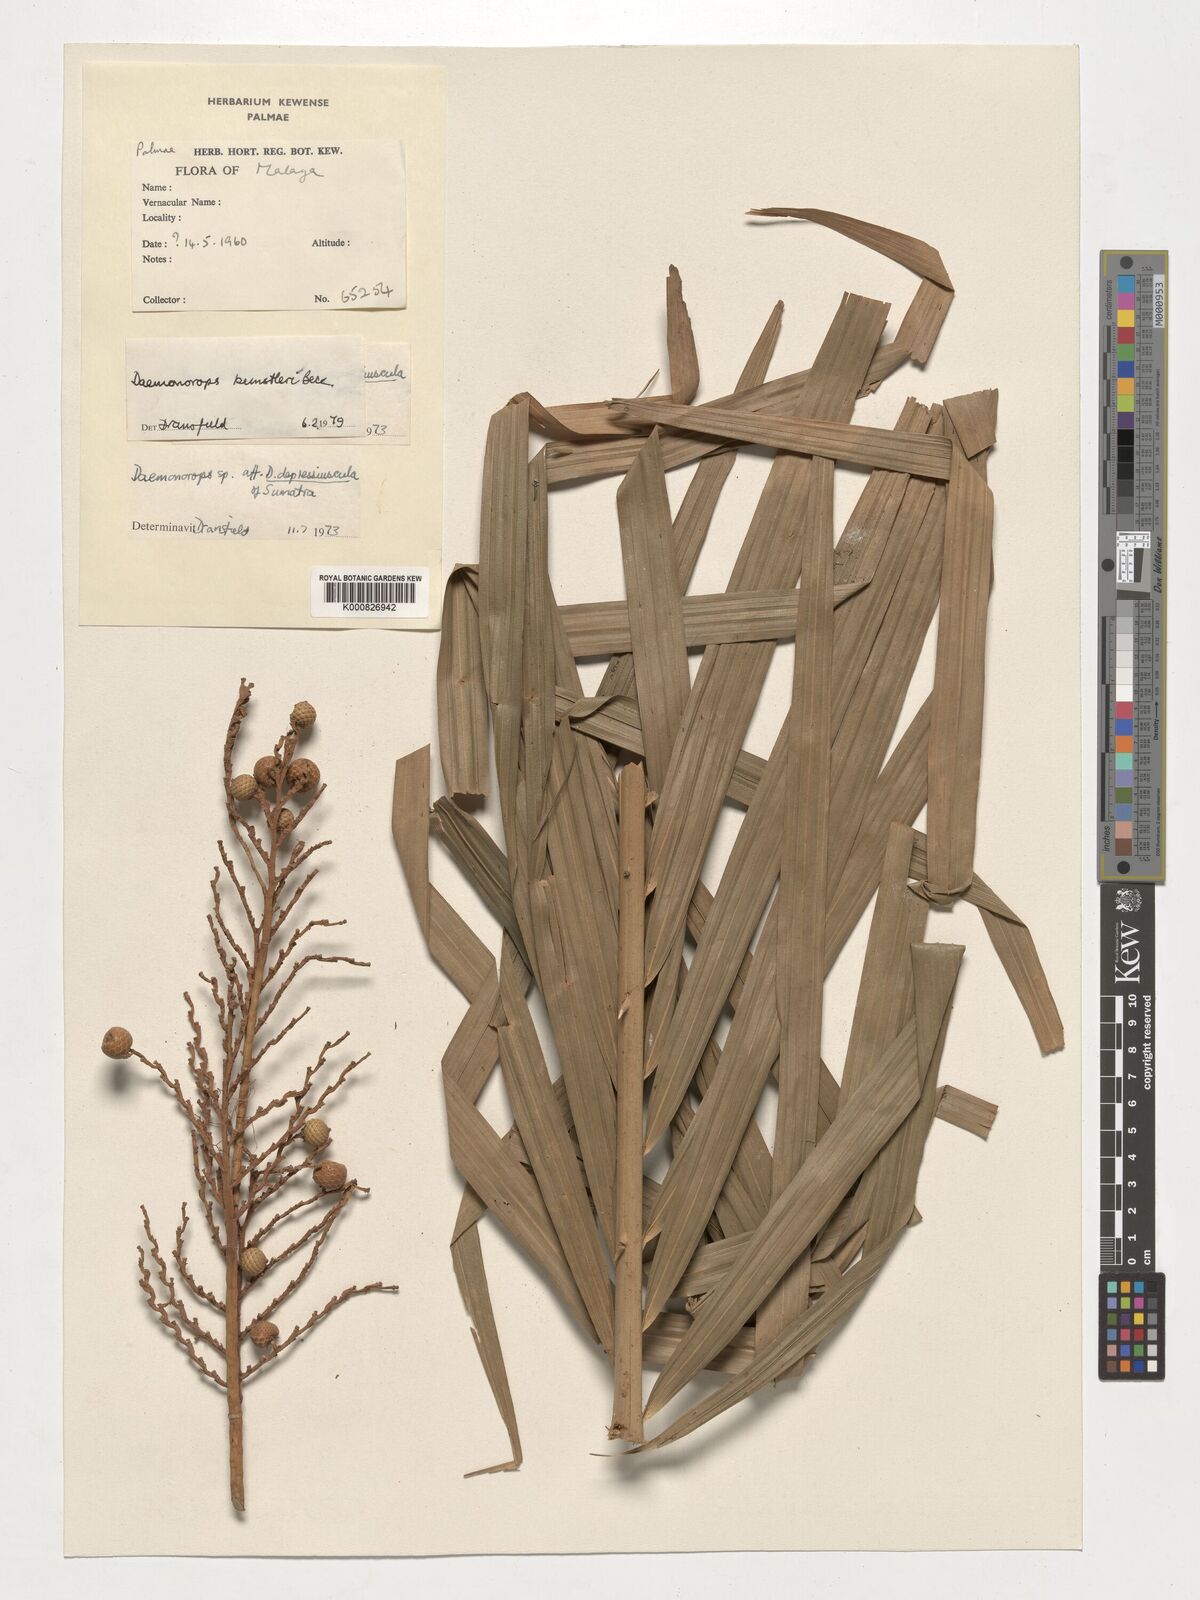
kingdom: Plantae
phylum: Tracheophyta
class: Liliopsida
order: Arecales
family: Arecaceae
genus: Calamus
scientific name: Calamus kunstleri
